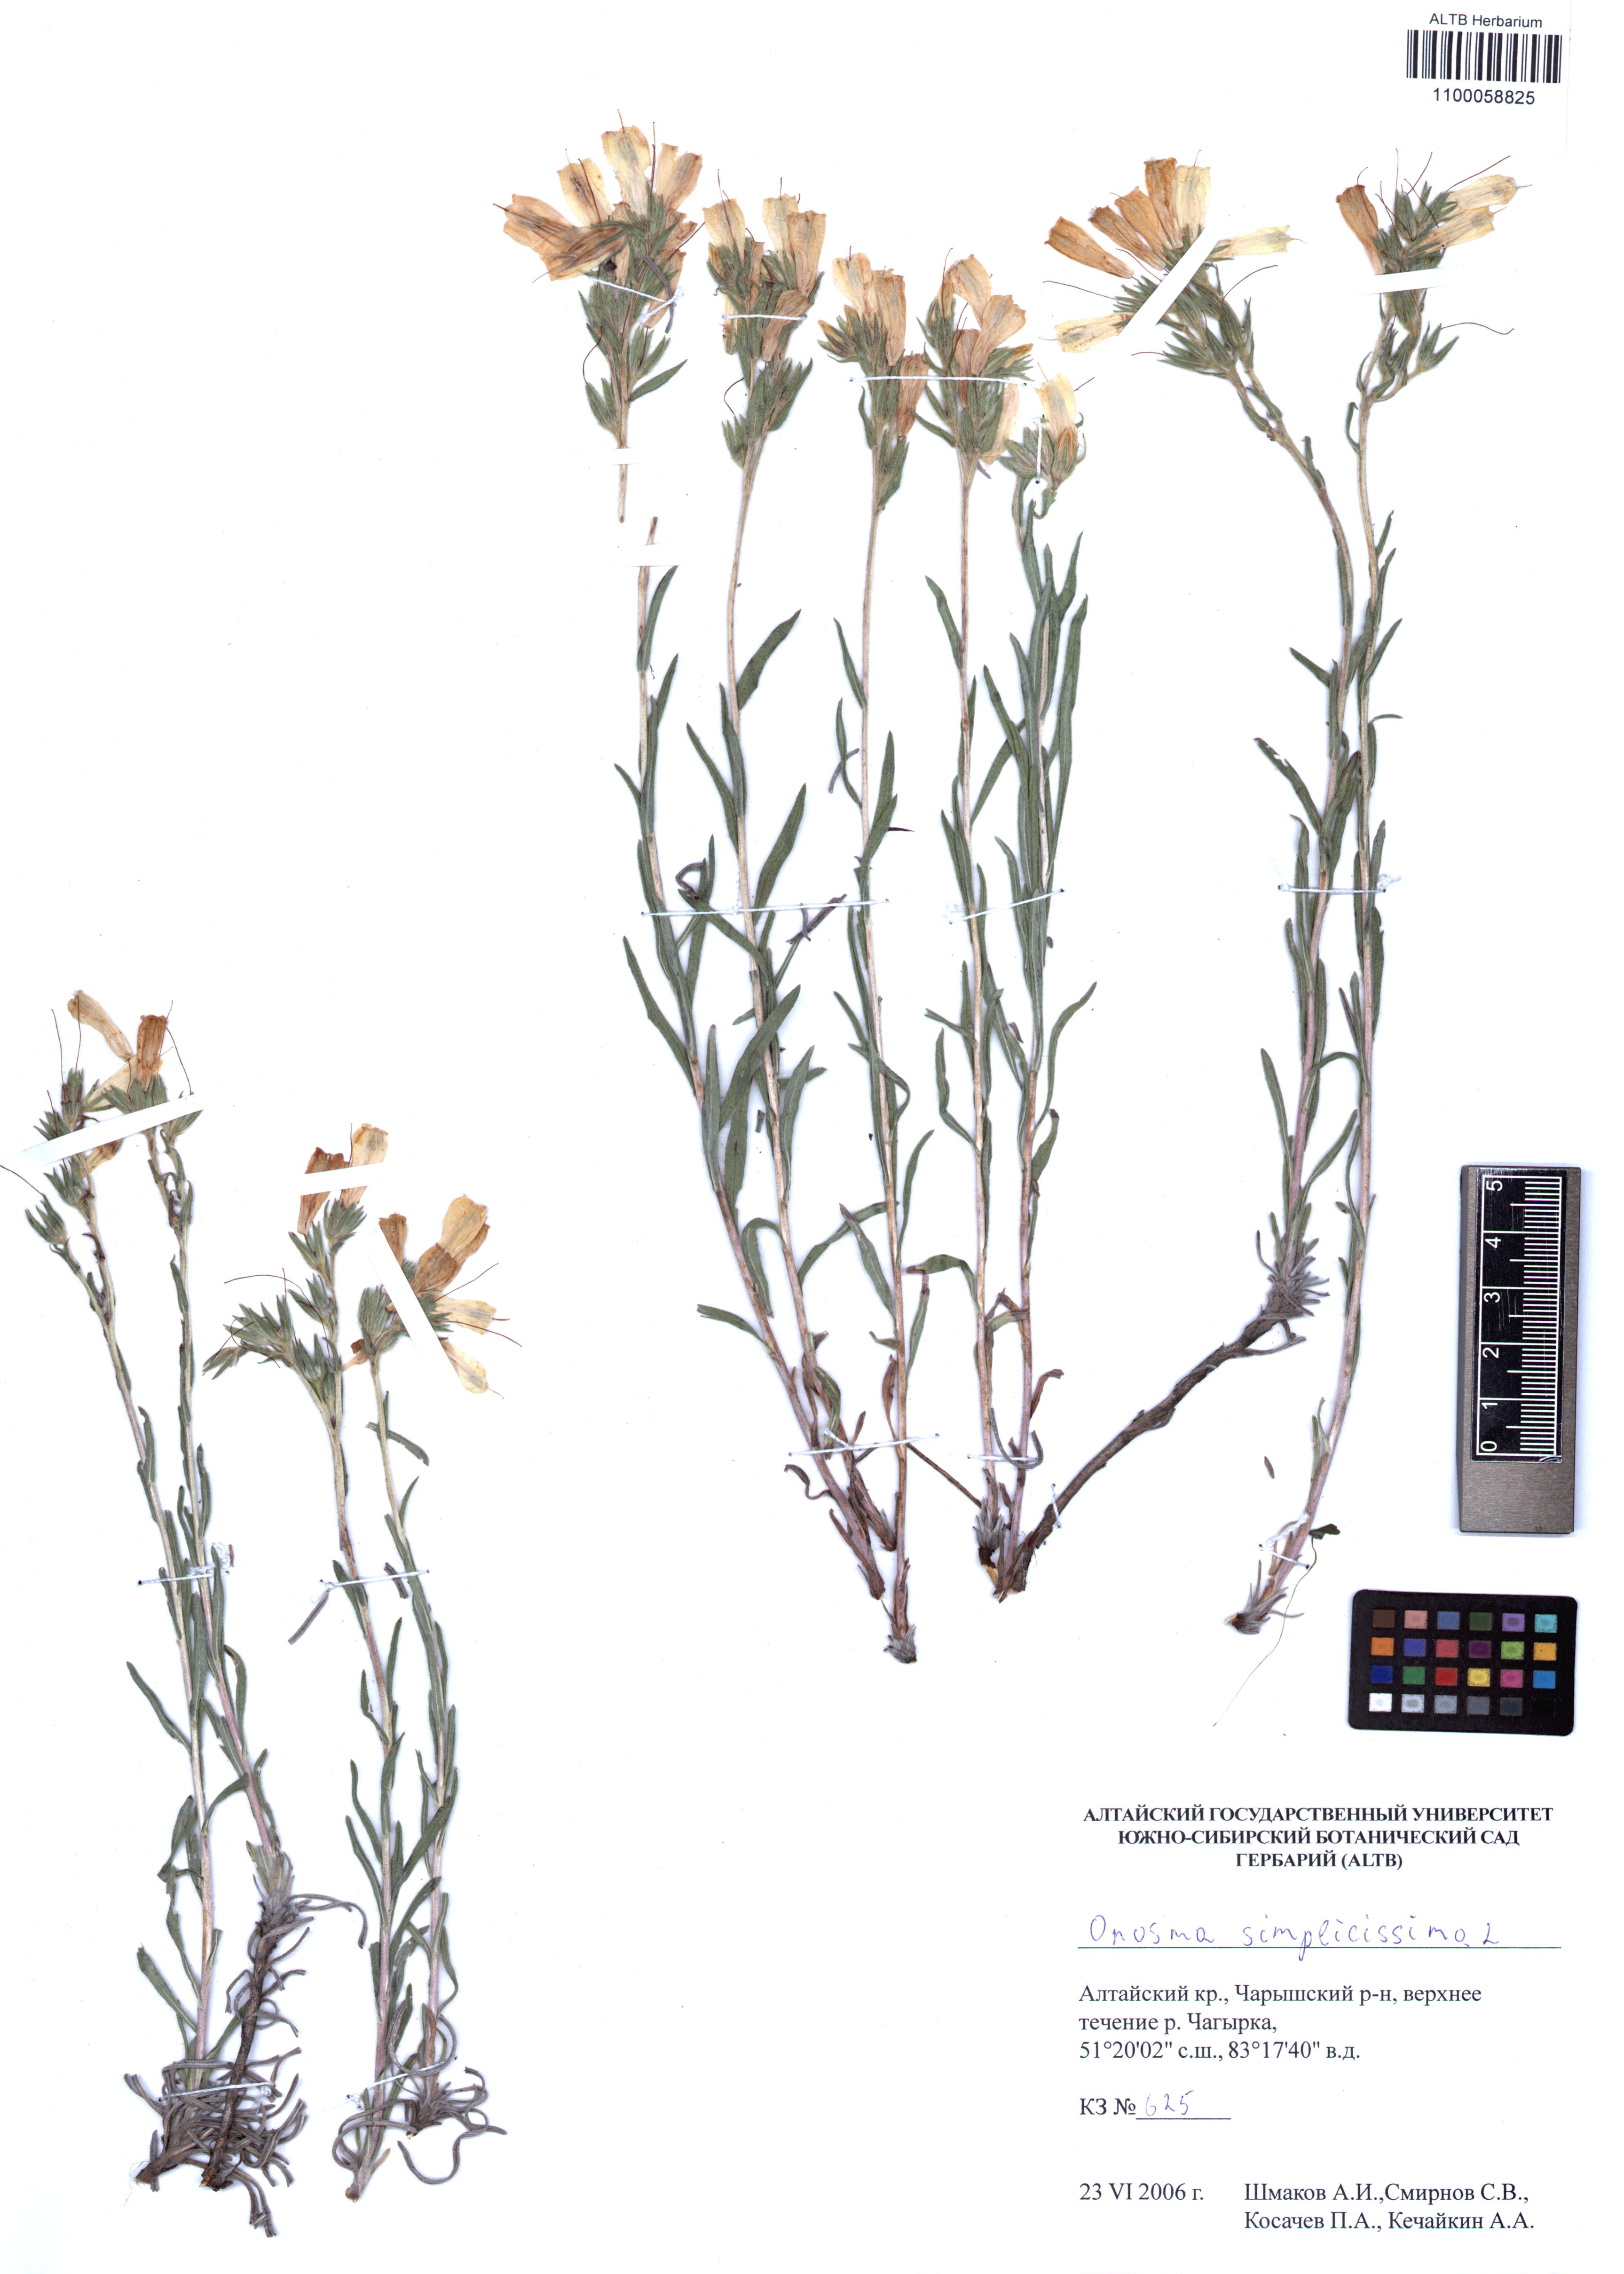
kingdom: Plantae
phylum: Tracheophyta
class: Magnoliopsida
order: Boraginales
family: Boraginaceae
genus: Onosma
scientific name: Onosma simplicissima
